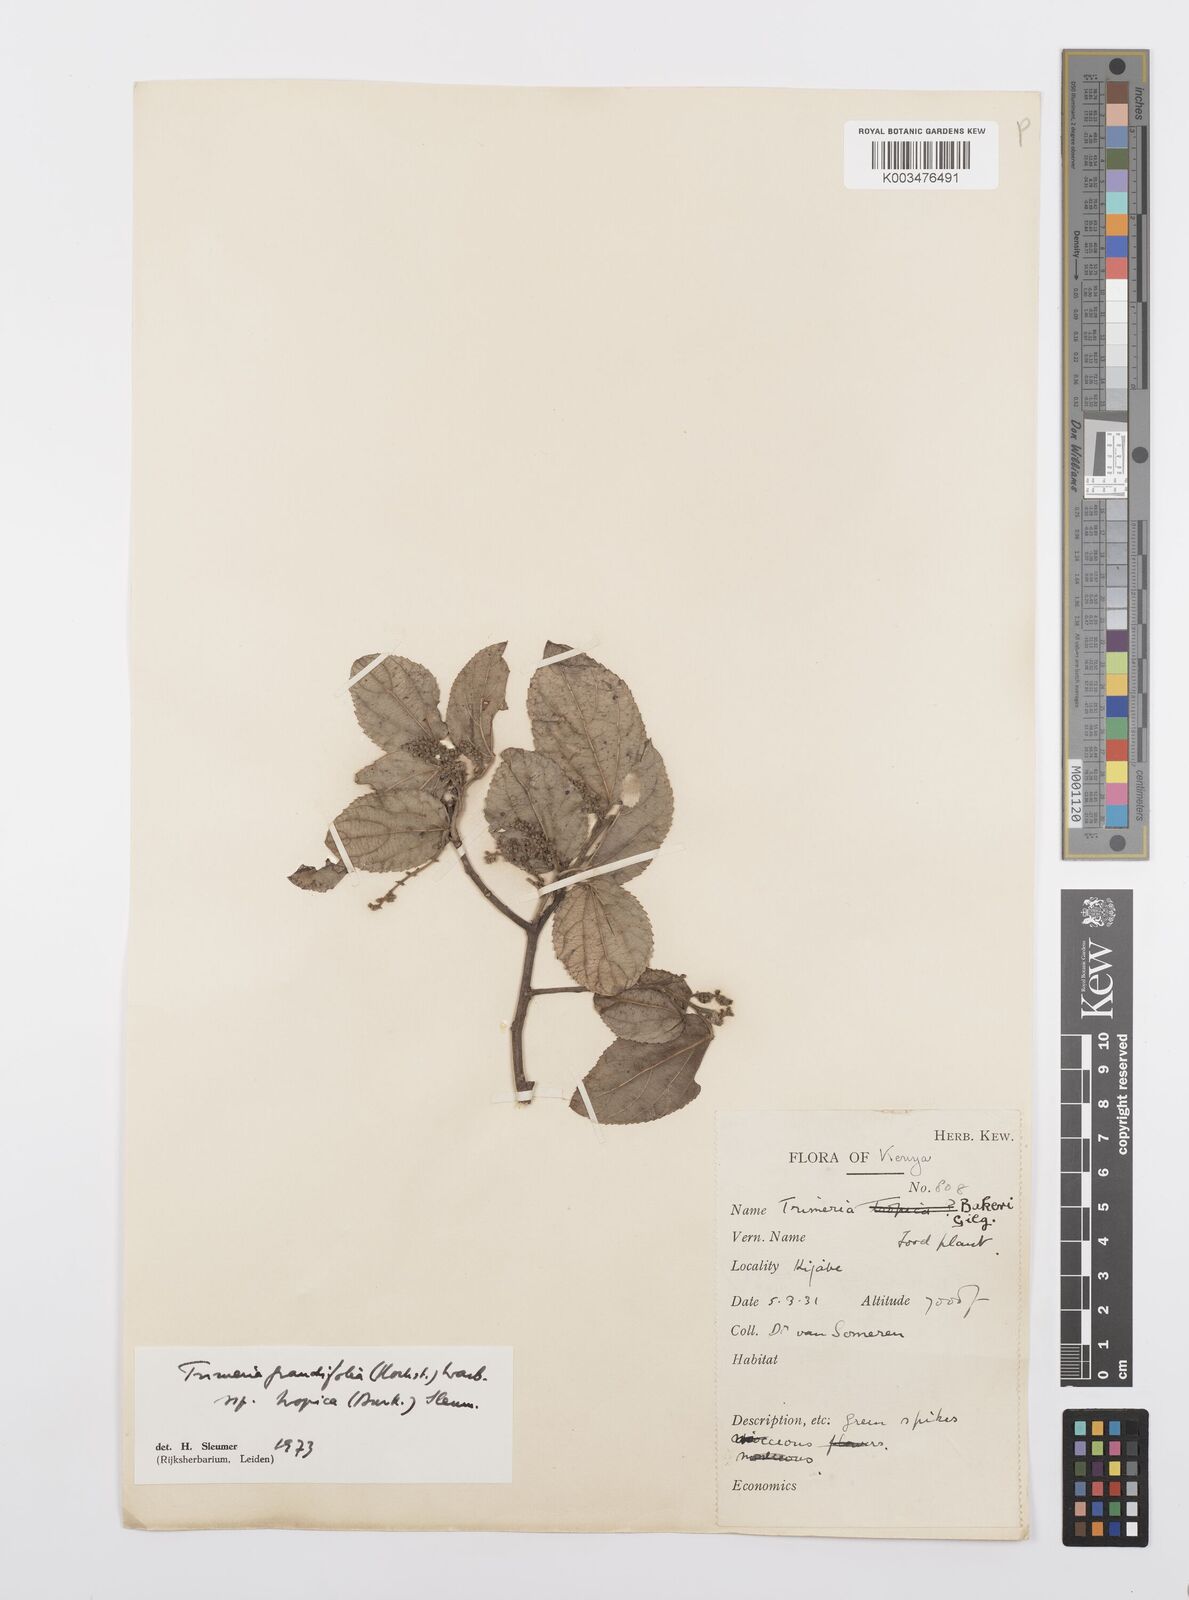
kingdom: Plantae
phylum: Tracheophyta
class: Magnoliopsida
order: Malpighiales
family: Salicaceae
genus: Trimeria
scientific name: Trimeria grandifolia
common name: Wild mulberry
